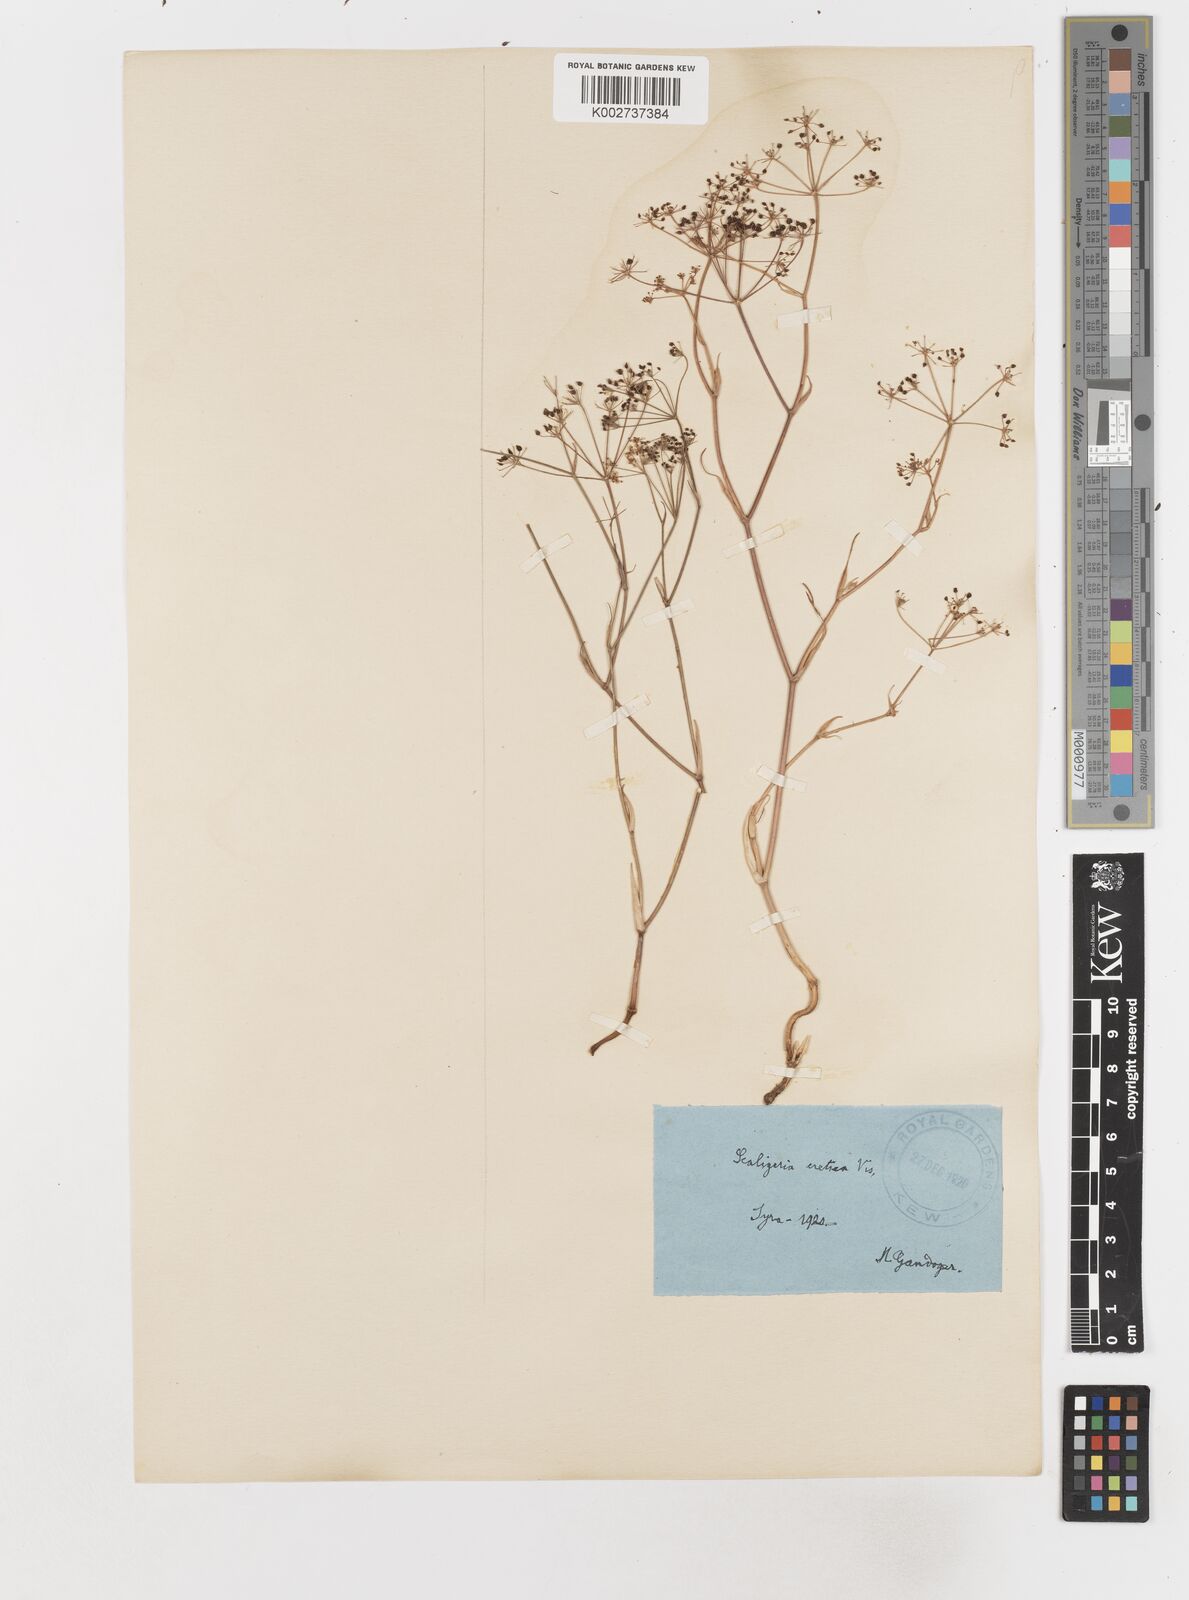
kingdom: Plantae
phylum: Tracheophyta
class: Magnoliopsida
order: Apiales
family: Apiaceae
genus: Scaligeria
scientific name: Scaligeria
